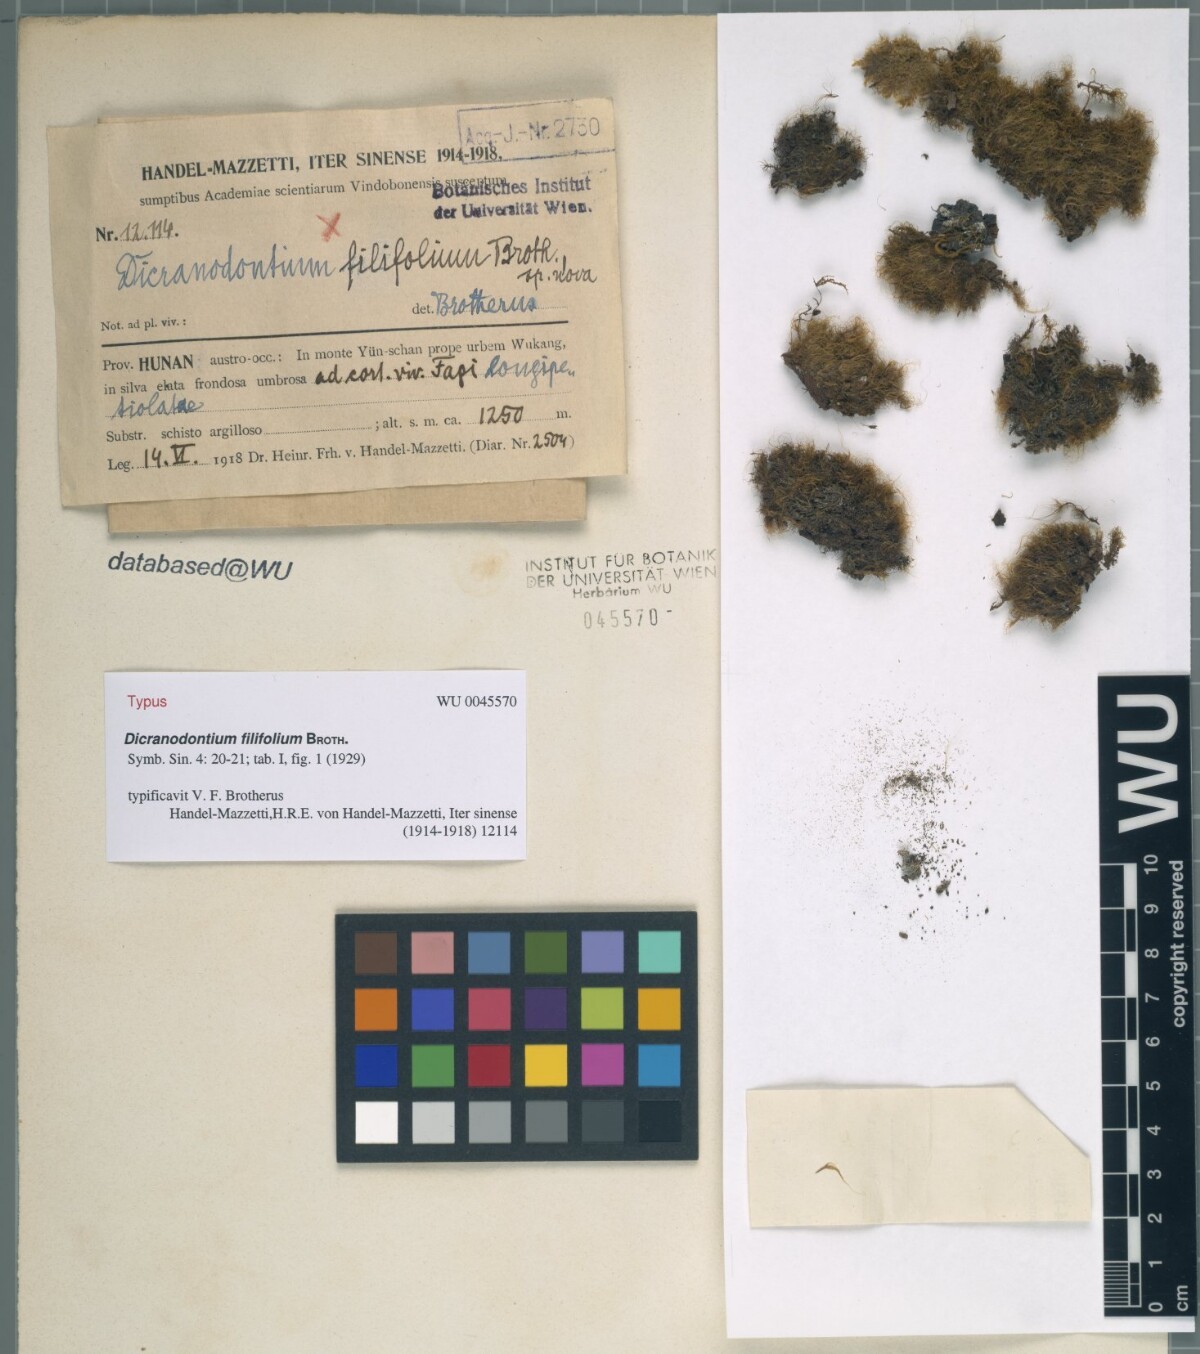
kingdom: Plantae
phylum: Bryophyta
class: Bryopsida
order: Dicranales
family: Leucobryaceae
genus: Dicranodontium
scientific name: Dicranodontium filifolium
